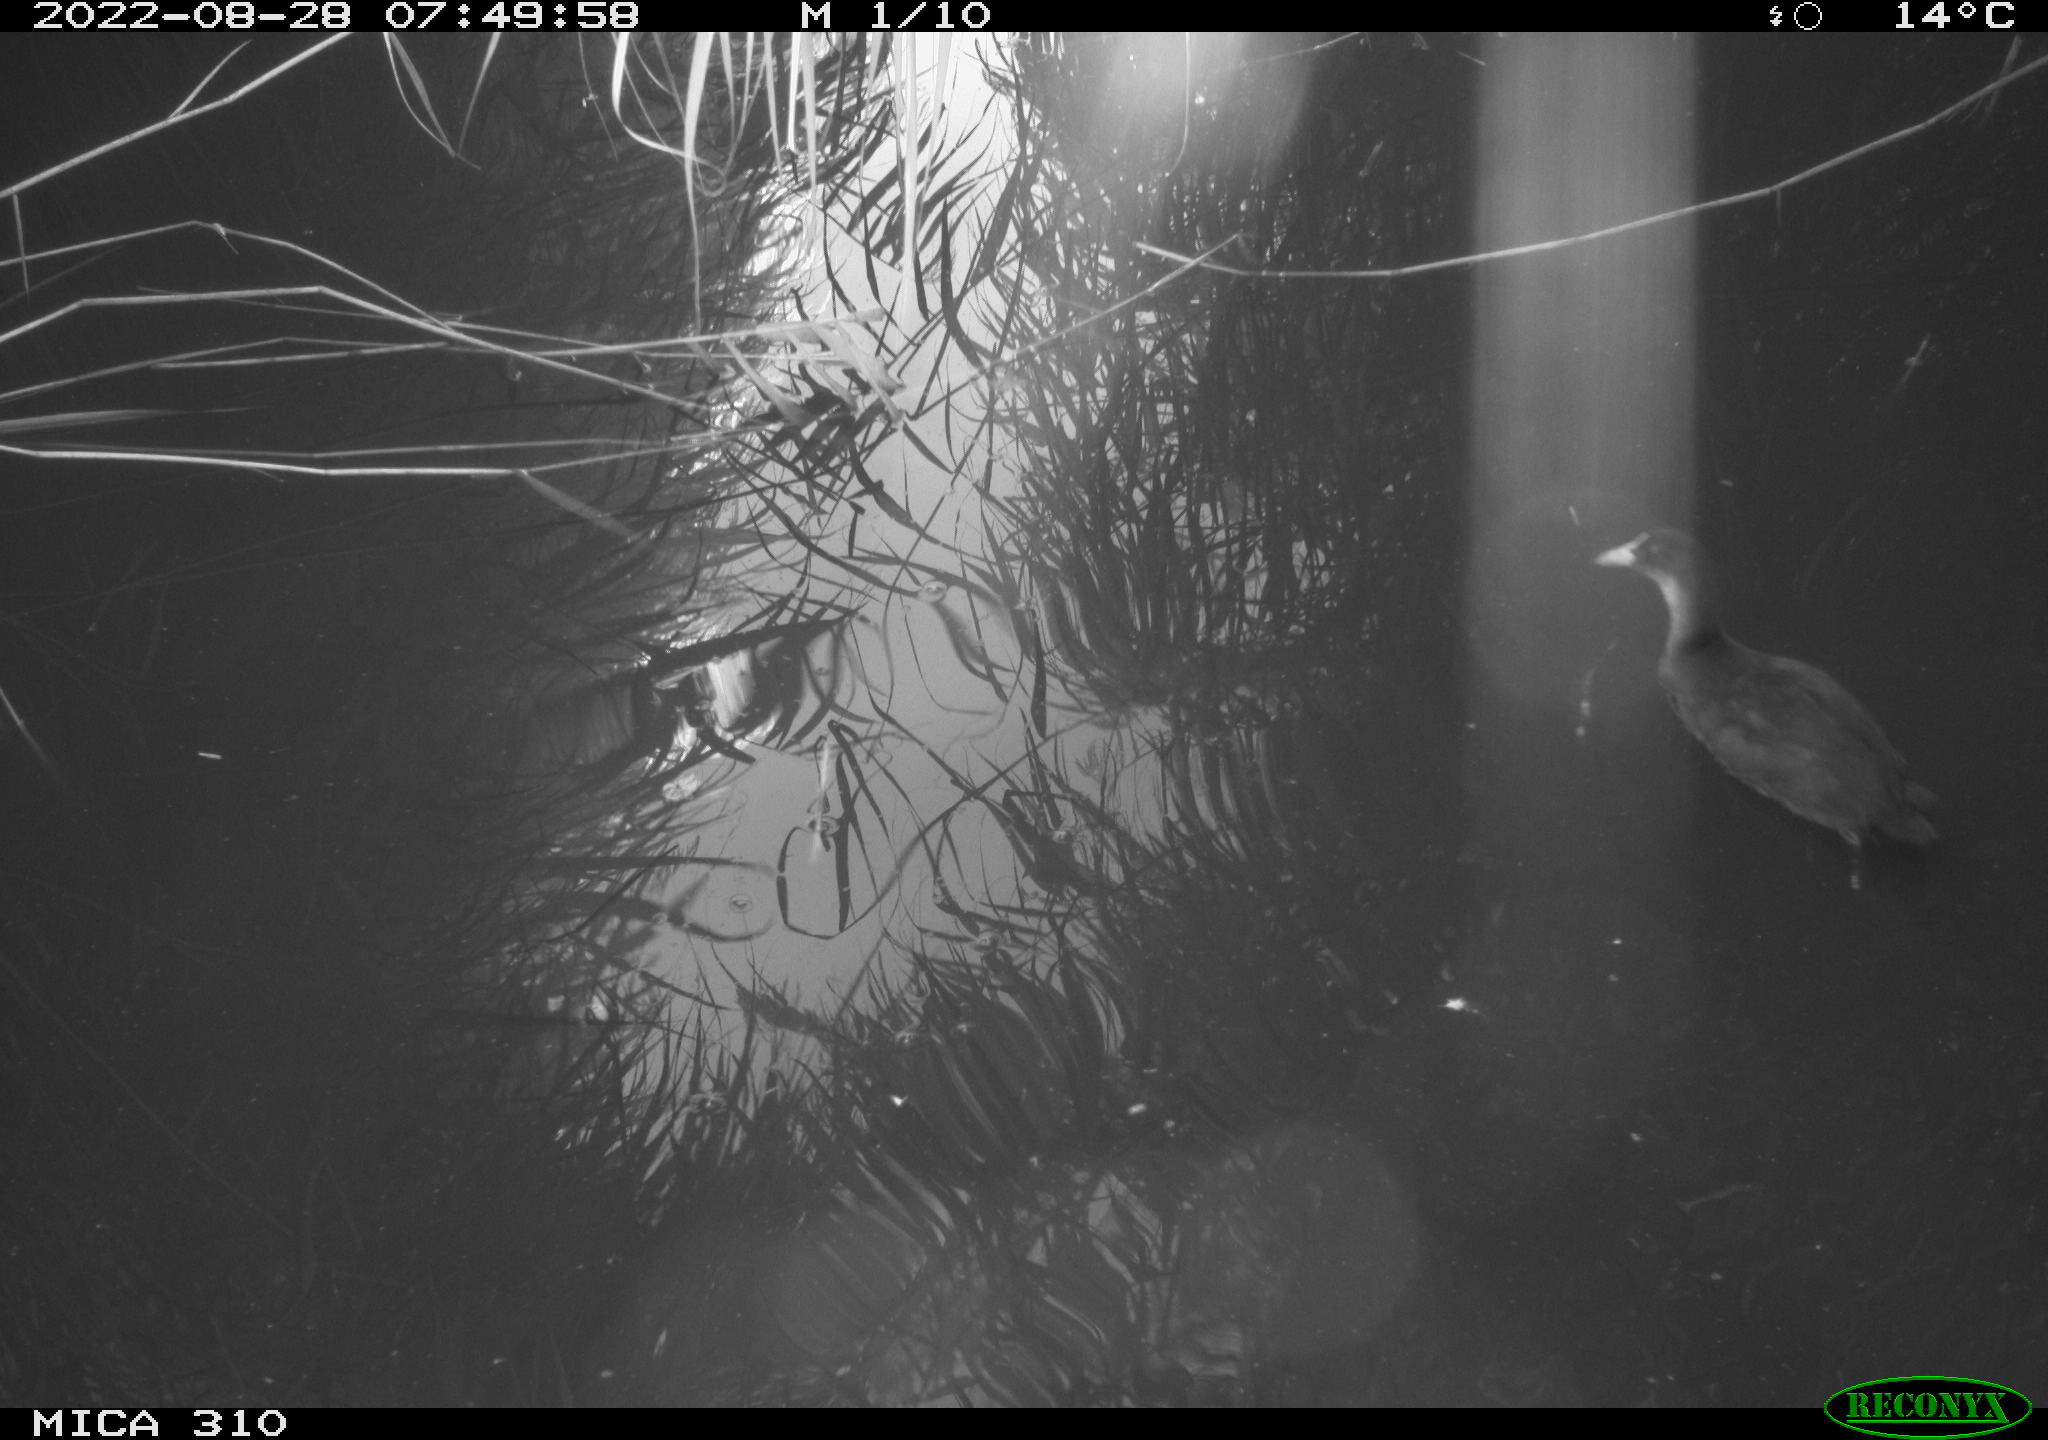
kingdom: Animalia
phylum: Chordata
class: Aves
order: Gruiformes
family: Rallidae
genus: Fulica
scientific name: Fulica atra
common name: Eurasian coot
